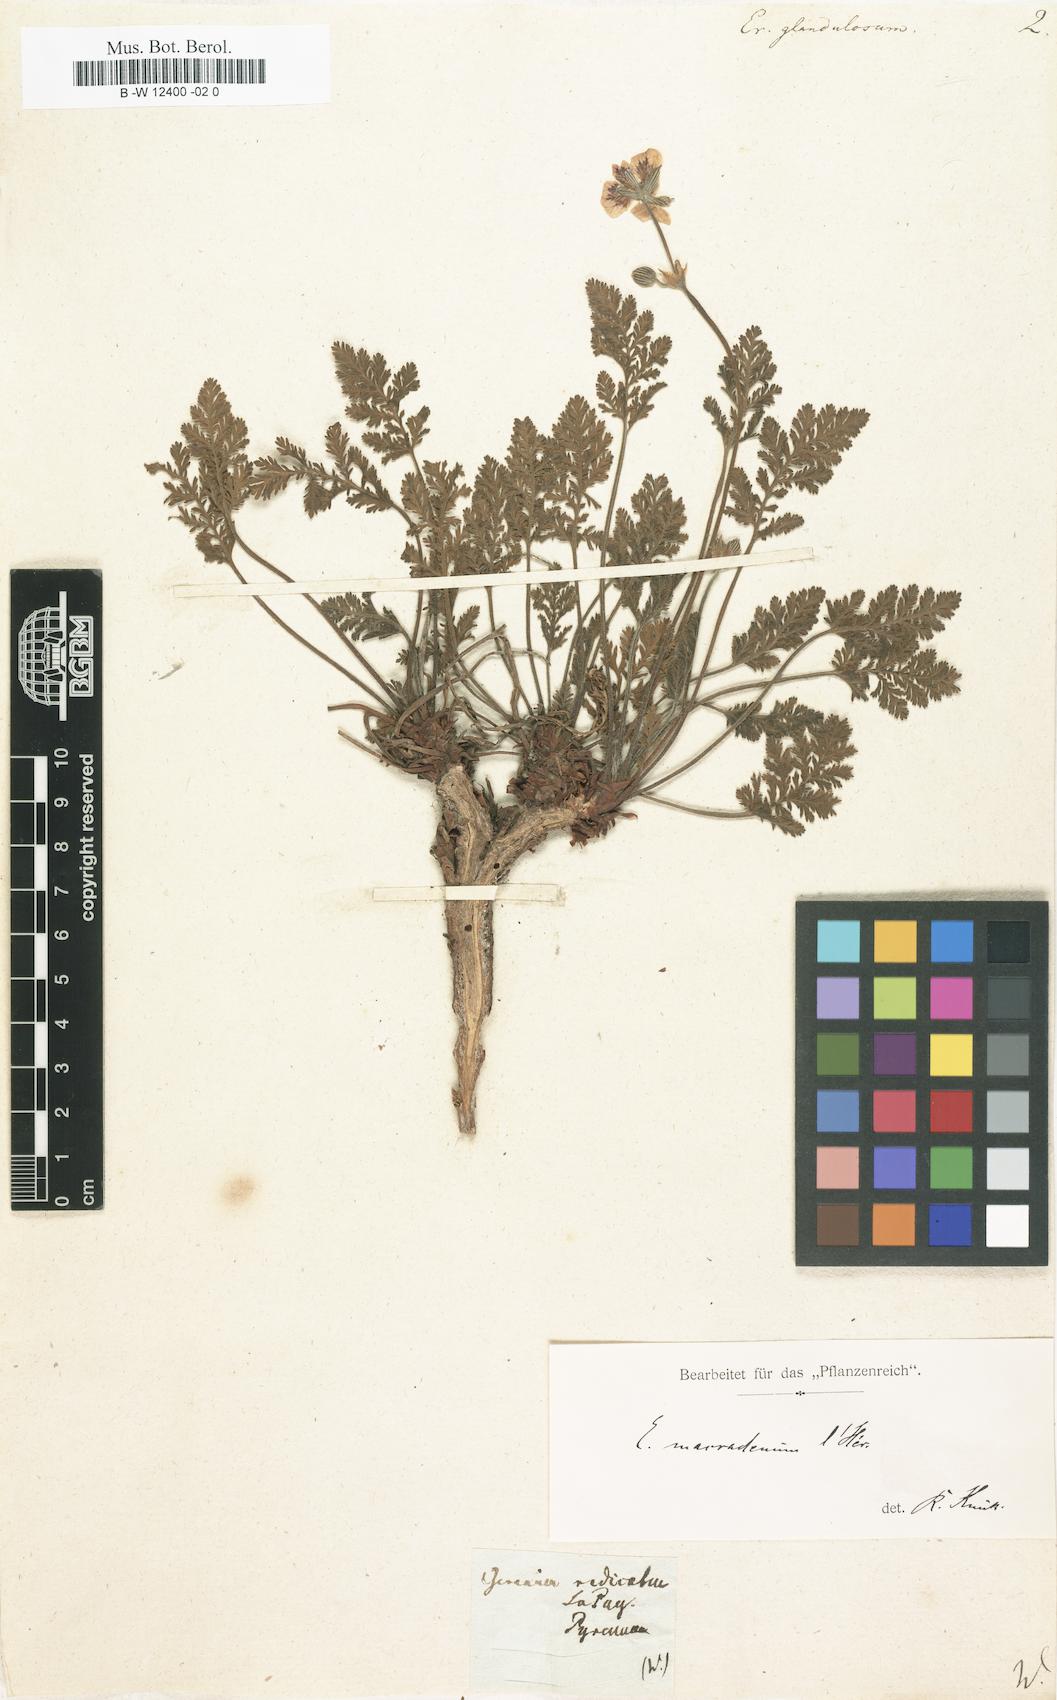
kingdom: Plantae
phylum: Tracheophyta
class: Magnoliopsida
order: Geraniales
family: Geraniaceae
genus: Erodium
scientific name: Erodium glandulosum
